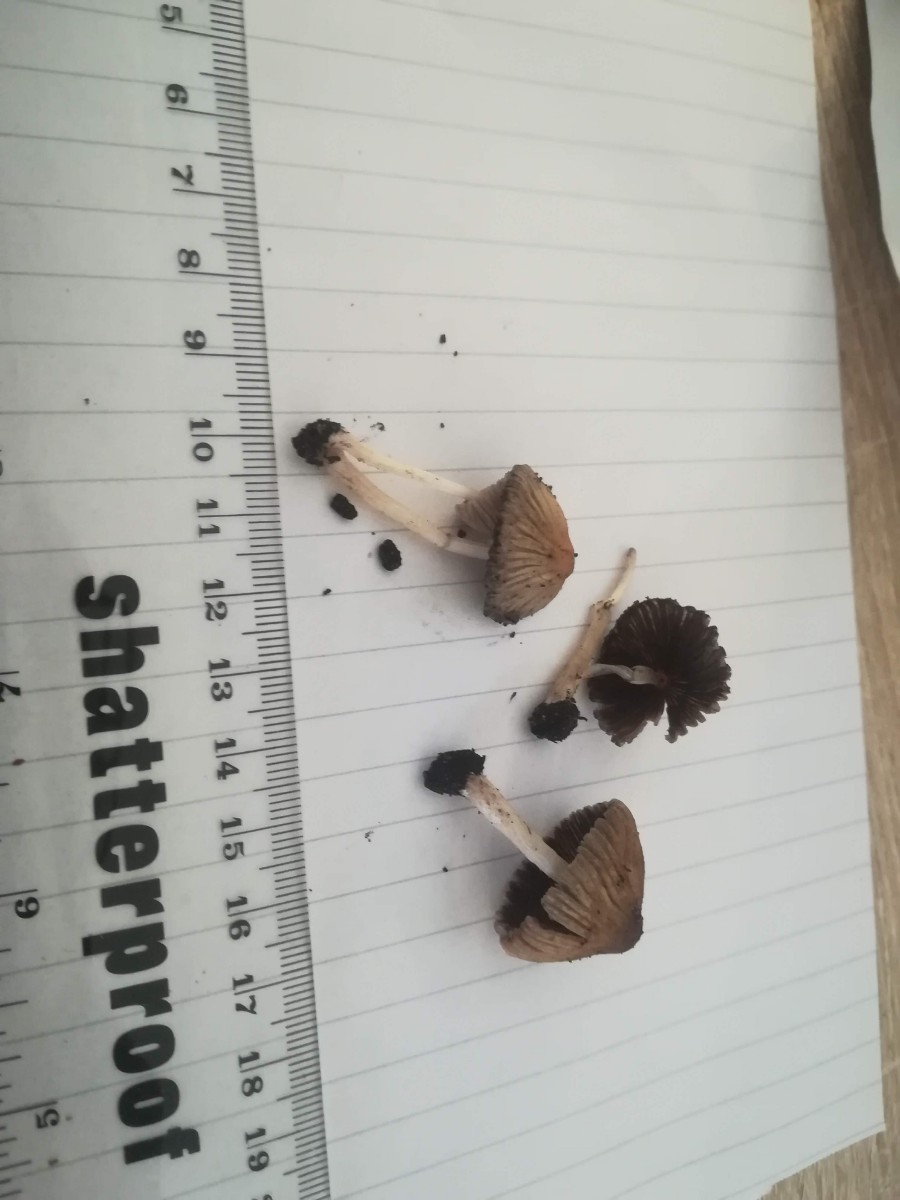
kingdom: Fungi
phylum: Basidiomycota
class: Agaricomycetes
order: Agaricales
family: Psathyrellaceae
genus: Parasola
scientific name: Parasola auricoma
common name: hansens hjulhat
